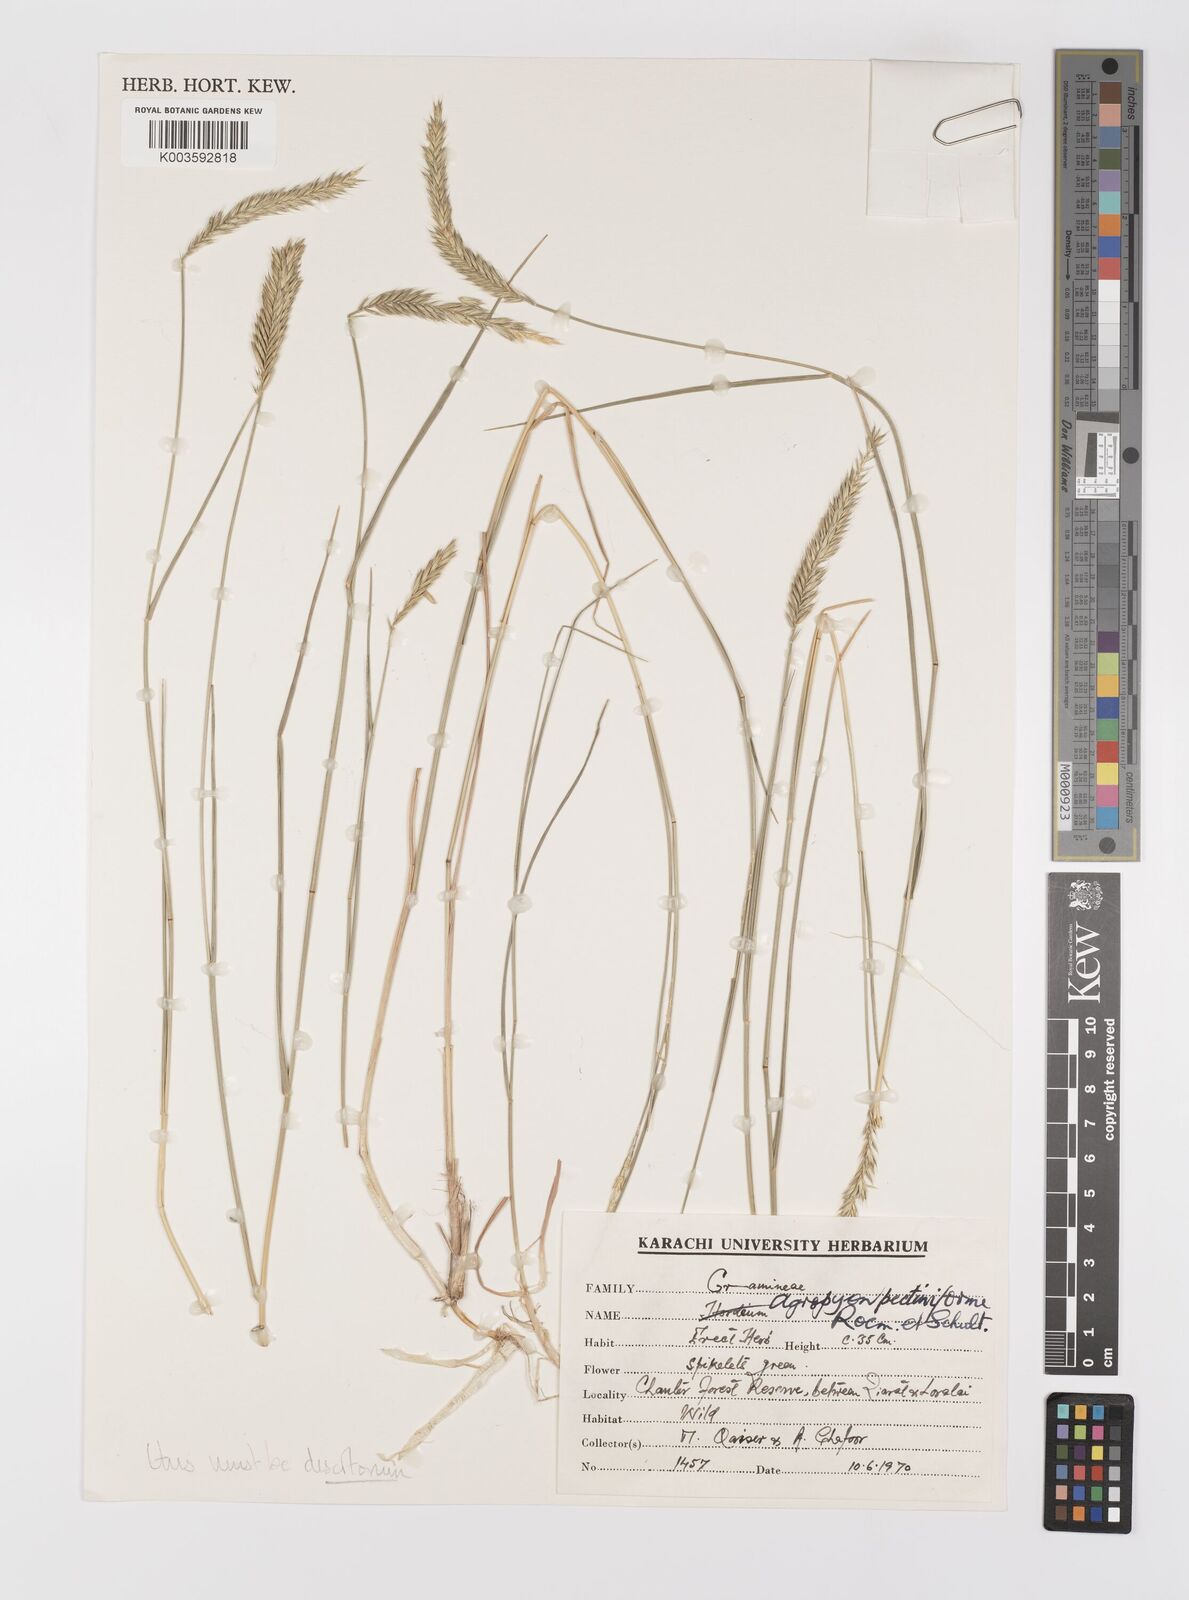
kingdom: Plantae
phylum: Tracheophyta
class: Liliopsida
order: Poales
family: Poaceae
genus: Agropyron
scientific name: Agropyron desertorum
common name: Desert wheatgrass
